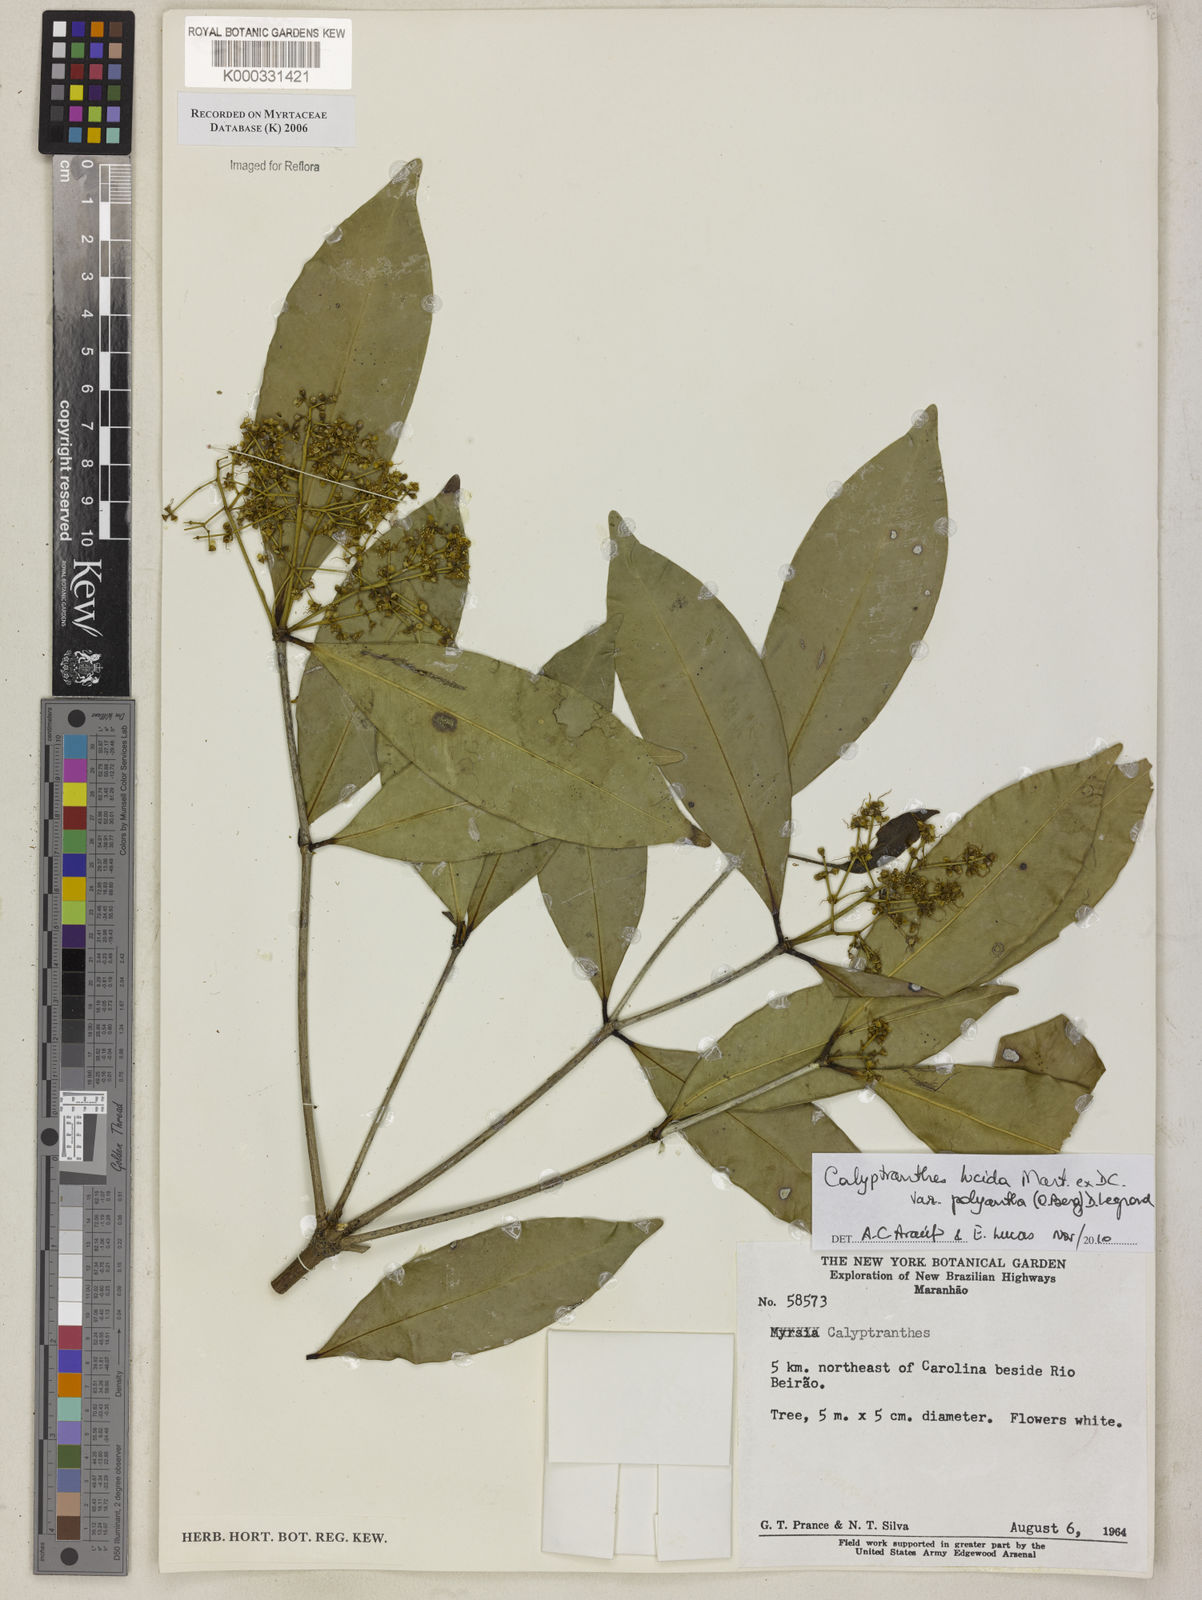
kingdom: Plantae
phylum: Tracheophyta
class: Magnoliopsida
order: Myrtales
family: Myrtaceae
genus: Calyptranthes
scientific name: Calyptranthes
